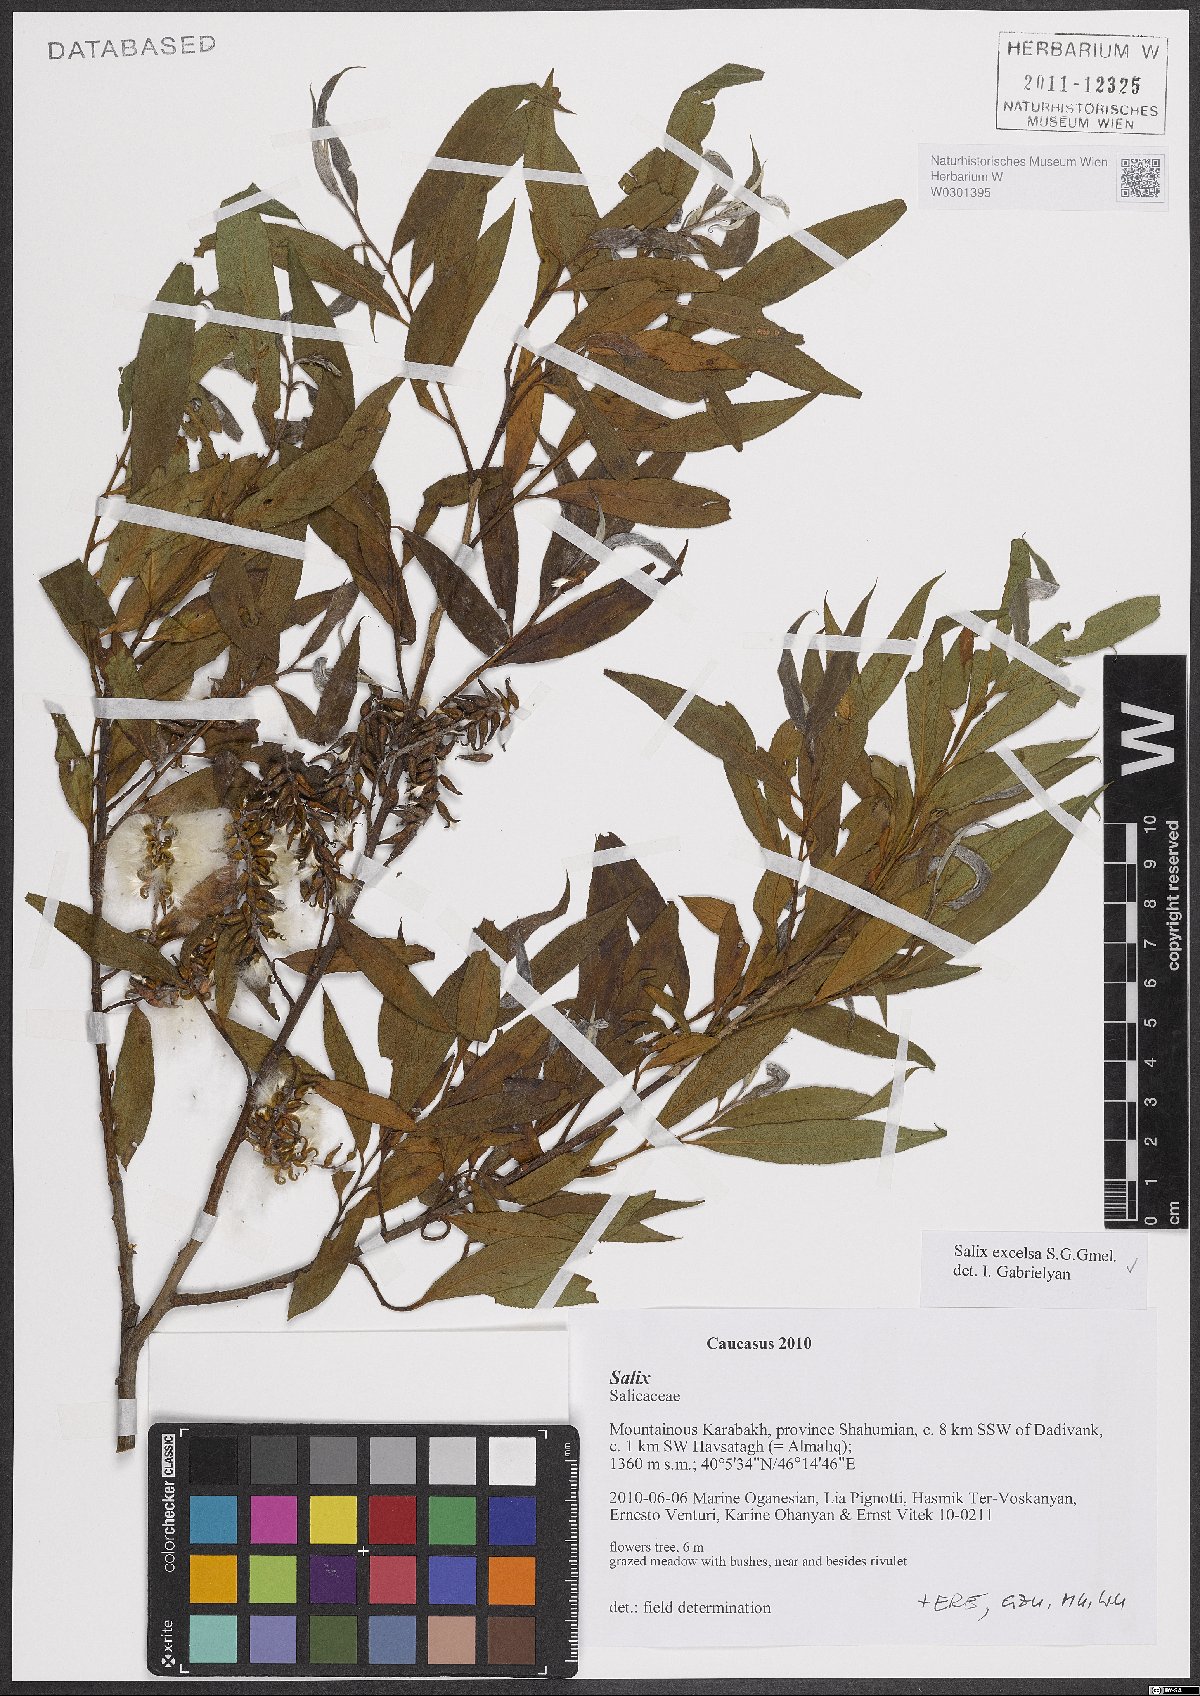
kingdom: Plantae
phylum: Tracheophyta
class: Magnoliopsida
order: Malpighiales
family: Salicaceae
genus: Salix
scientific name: Salix excelsa
